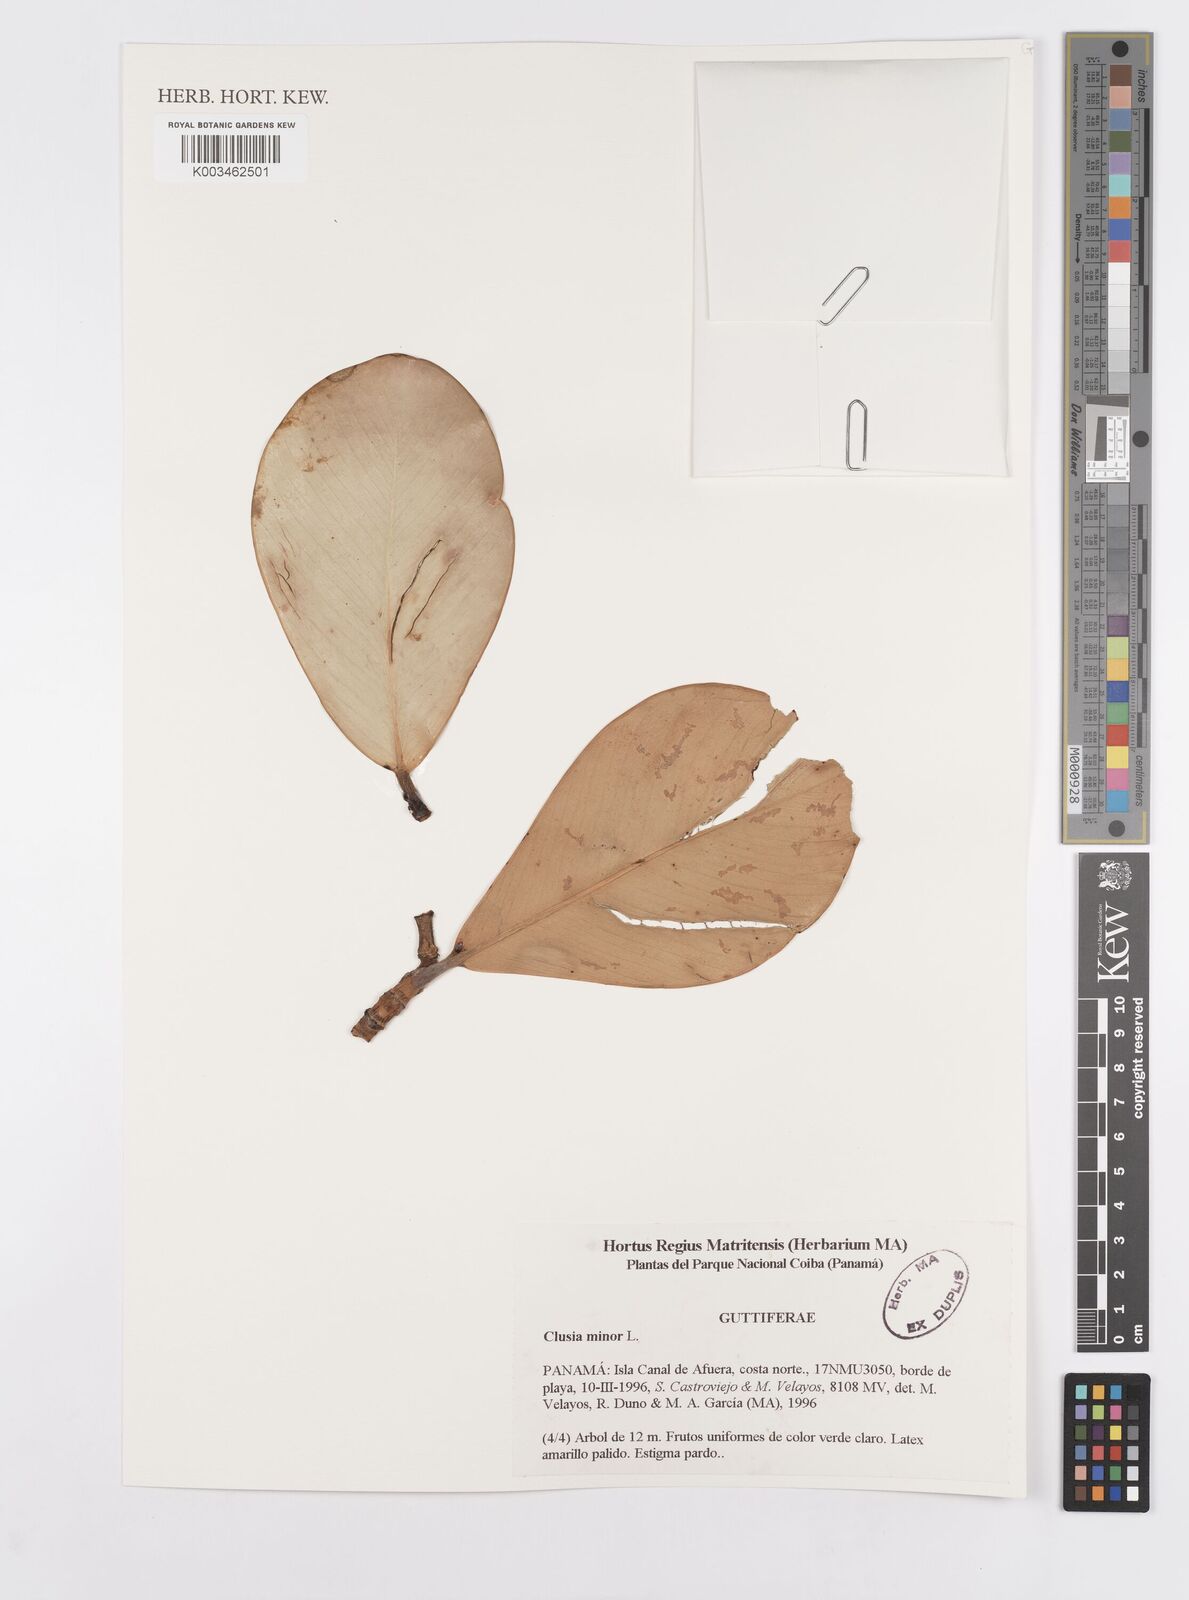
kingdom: Plantae
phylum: Tracheophyta
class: Magnoliopsida
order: Malpighiales
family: Clusiaceae
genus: Clusia
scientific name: Clusia minor
